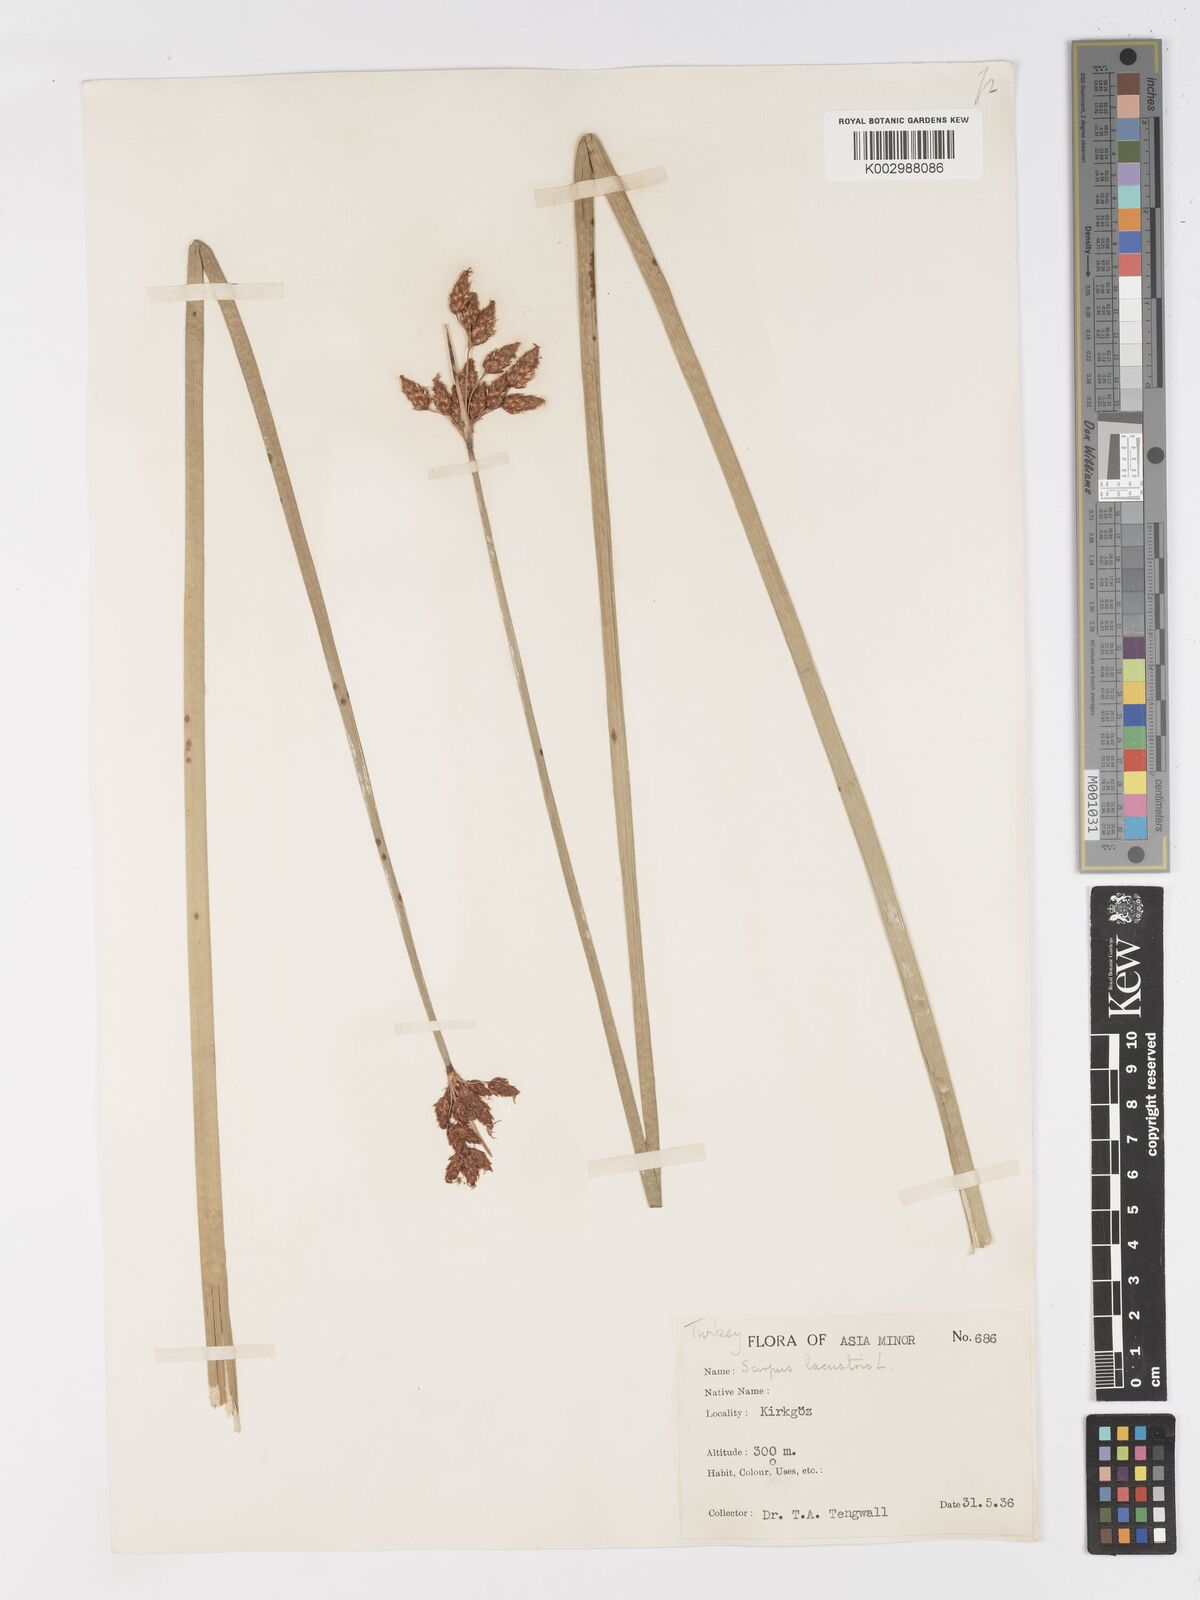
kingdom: Plantae
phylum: Tracheophyta
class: Liliopsida
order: Poales
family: Cyperaceae
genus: Schoenoplectus
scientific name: Schoenoplectus lacustris
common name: Common club-rush
